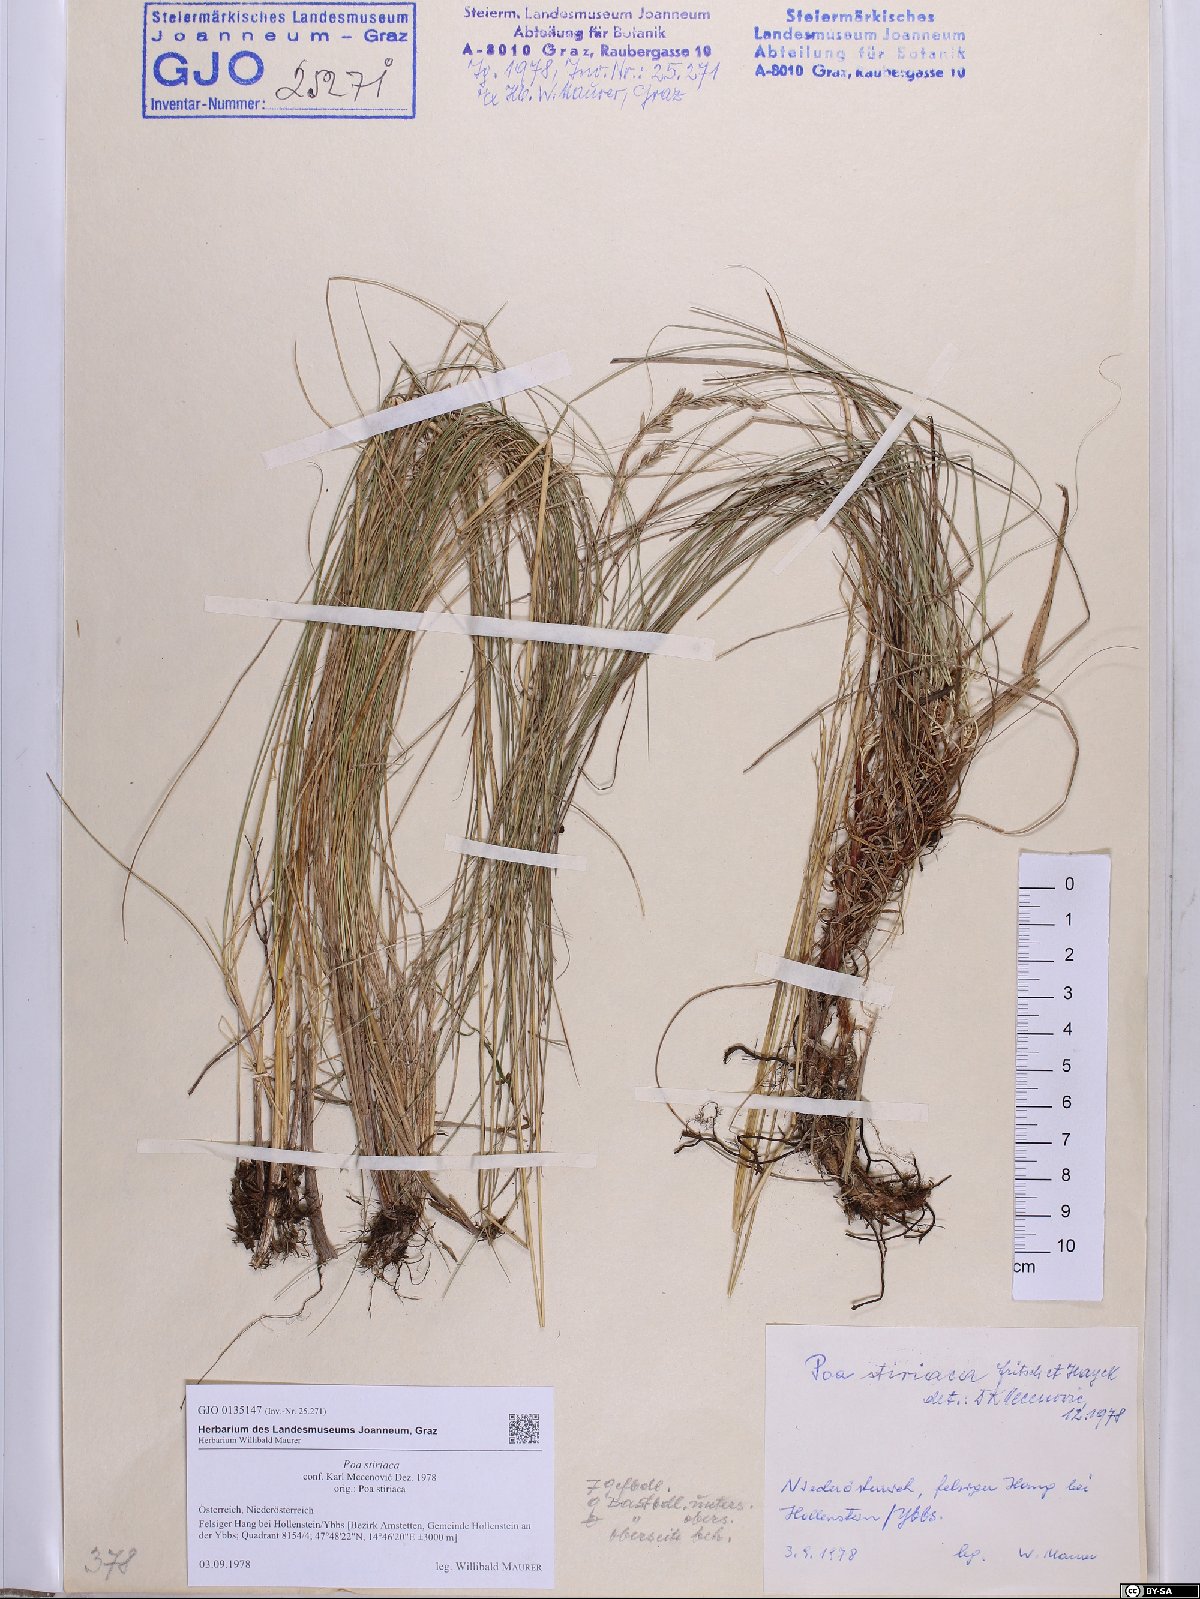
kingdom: Plantae
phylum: Tracheophyta
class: Liliopsida
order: Poales
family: Poaceae
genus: Poa
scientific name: Poa stiriaca
